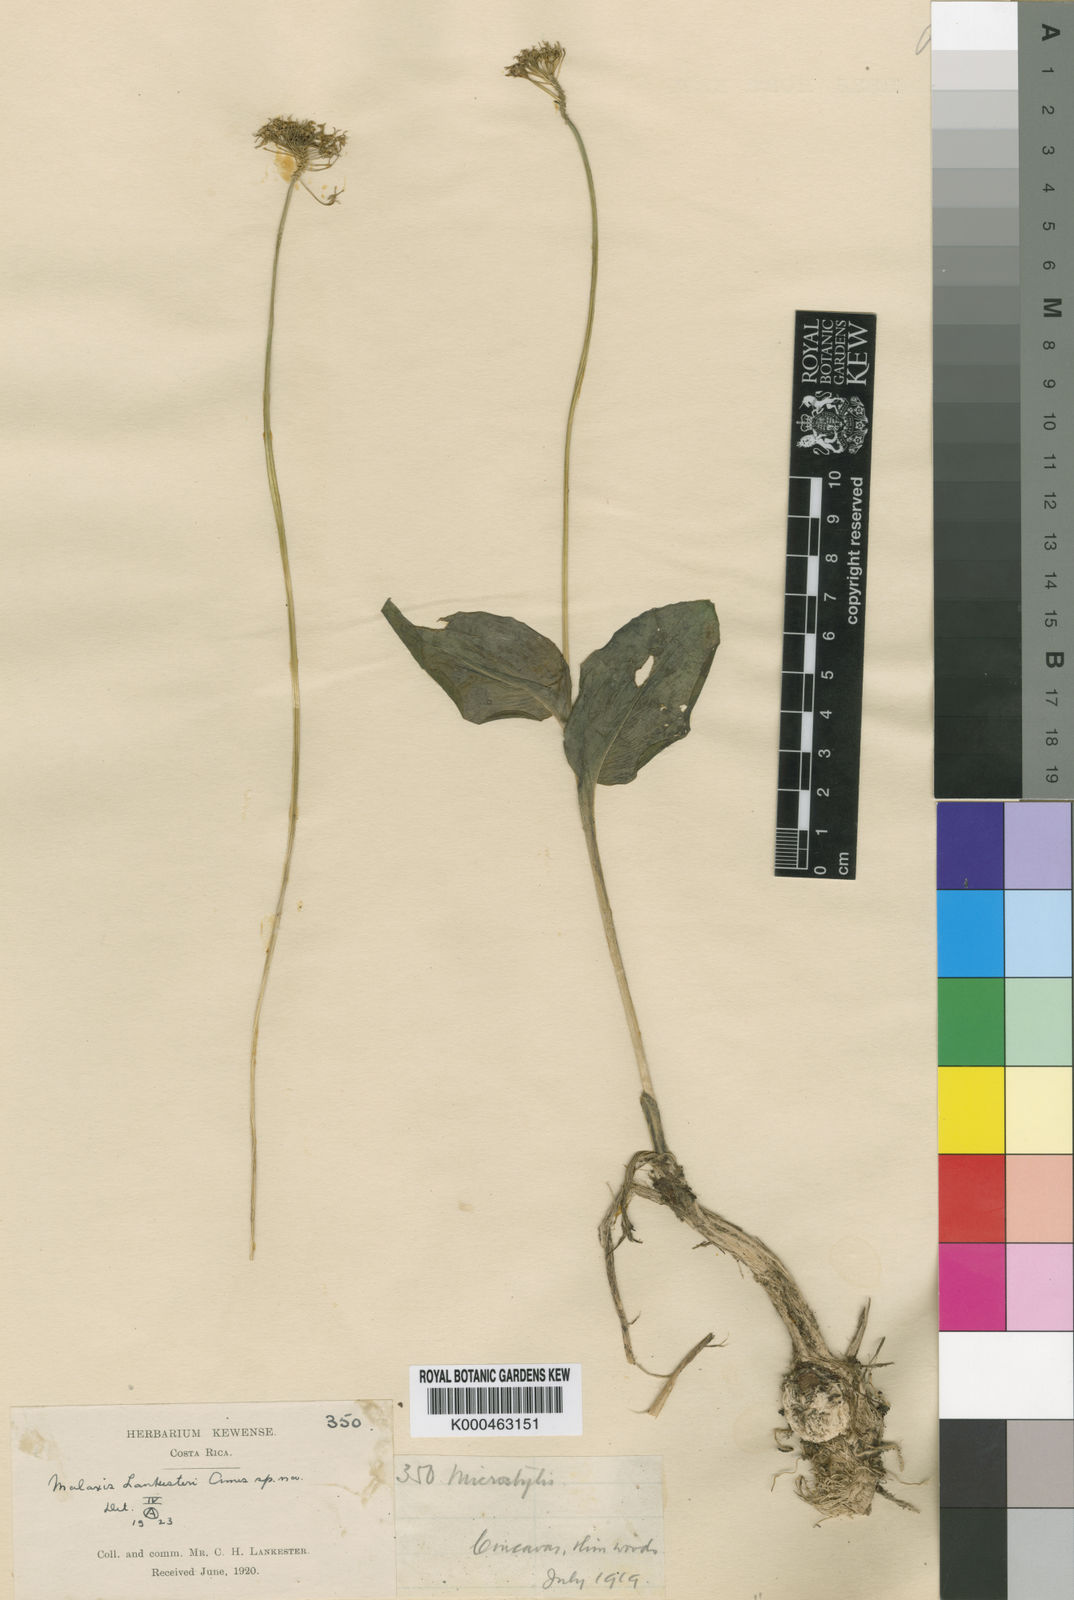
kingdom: Plantae
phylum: Tracheophyta
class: Liliopsida
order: Asparagales
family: Orchidaceae
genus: Malaxis
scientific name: Malaxis lagotis
